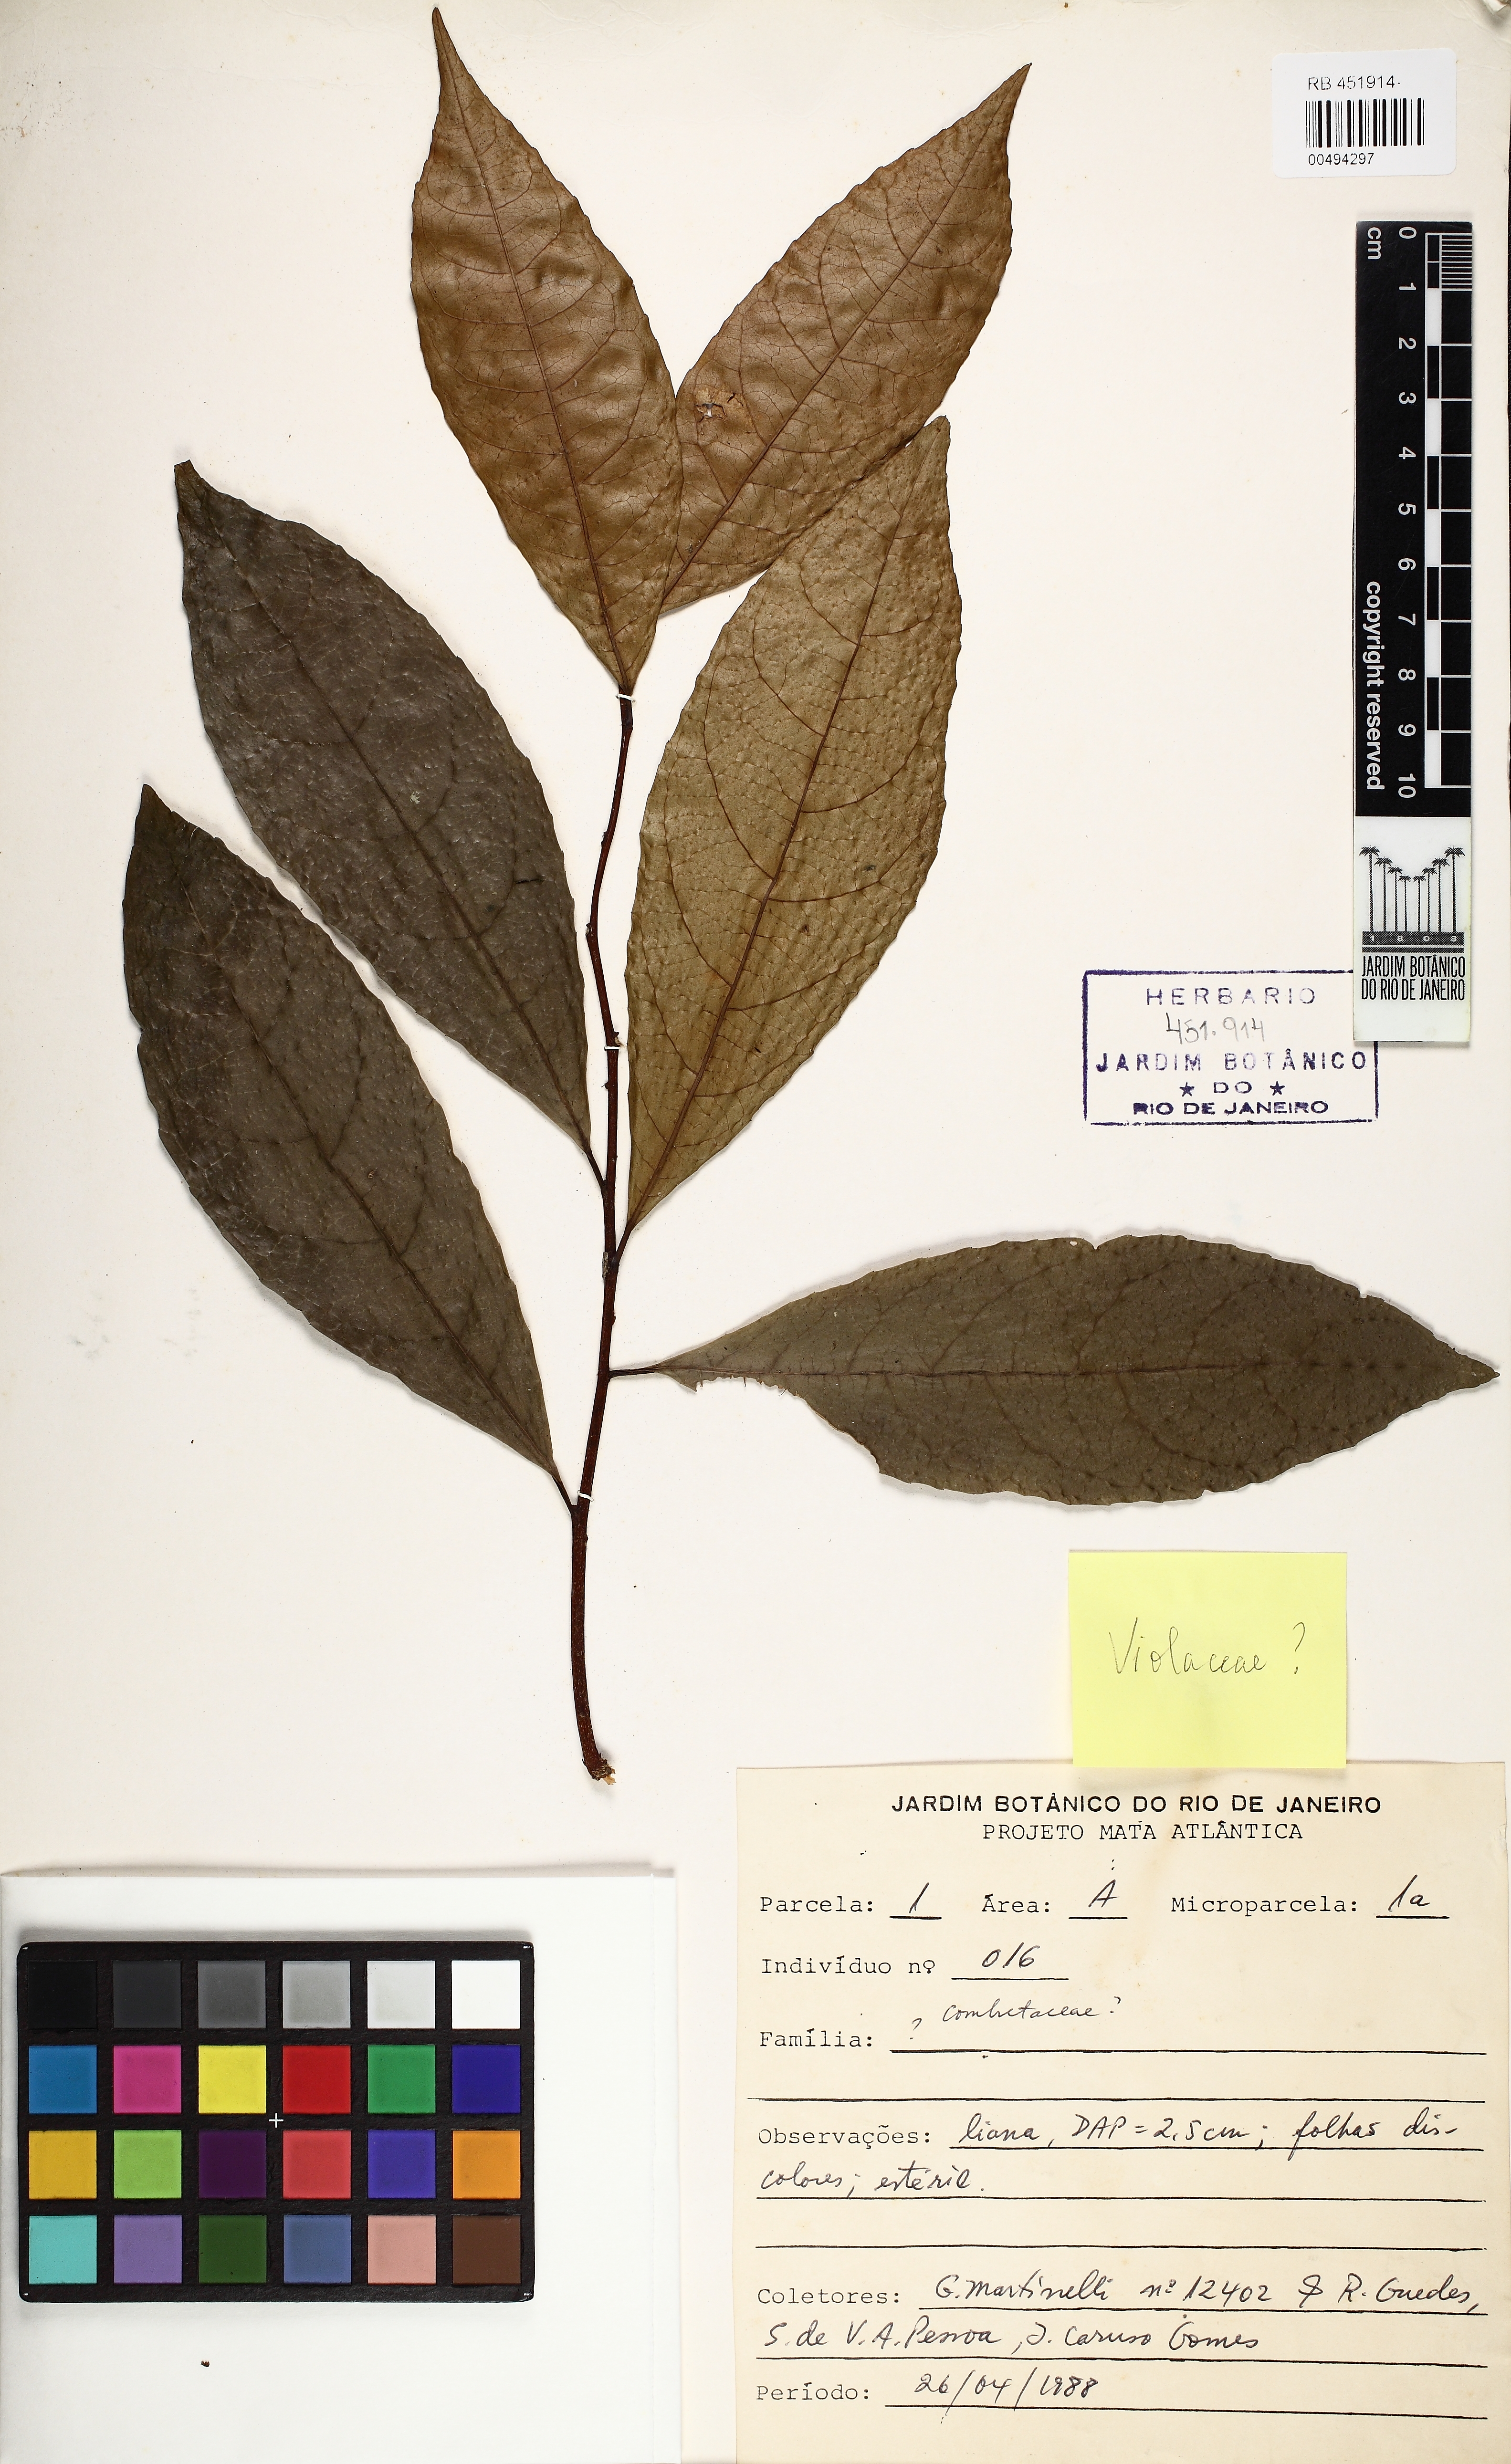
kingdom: Plantae
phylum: Tracheophyta
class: Magnoliopsida
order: Malpighiales
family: Violaceae
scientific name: Violaceae
